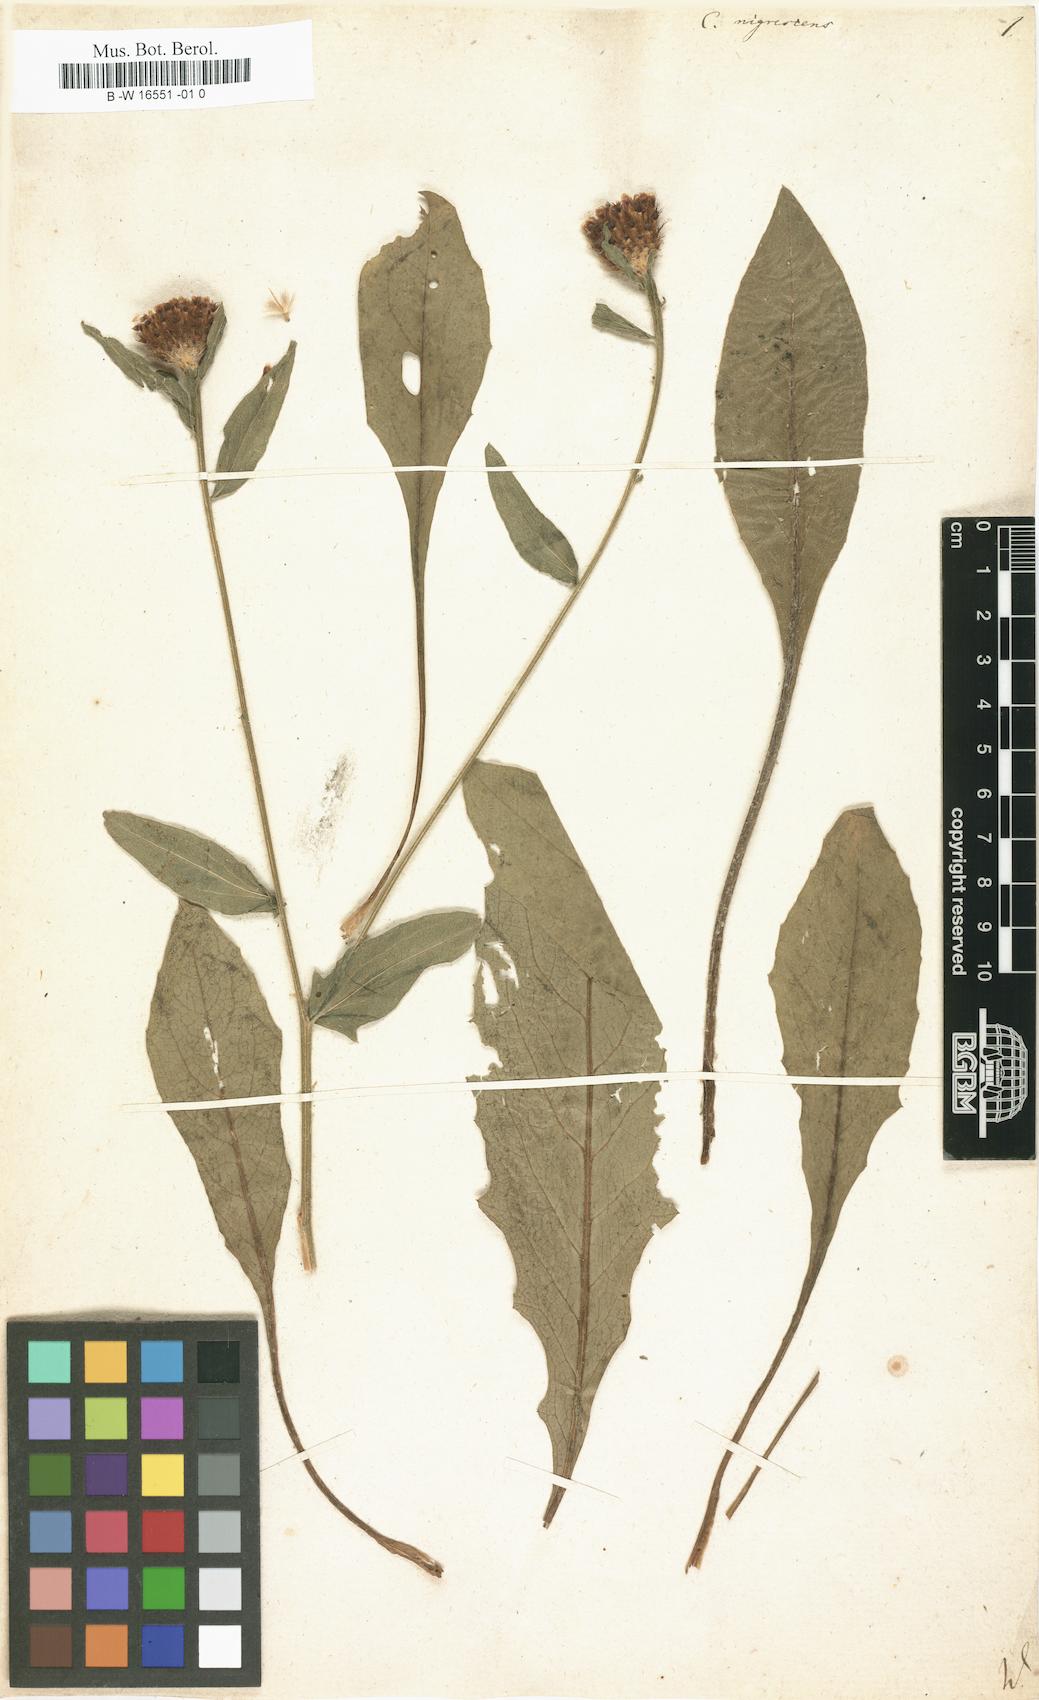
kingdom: Plantae
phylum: Tracheophyta
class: Magnoliopsida
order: Asterales
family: Asteraceae
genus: Centaurea
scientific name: Centaurea nigrescens
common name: Tyrol knapweed
